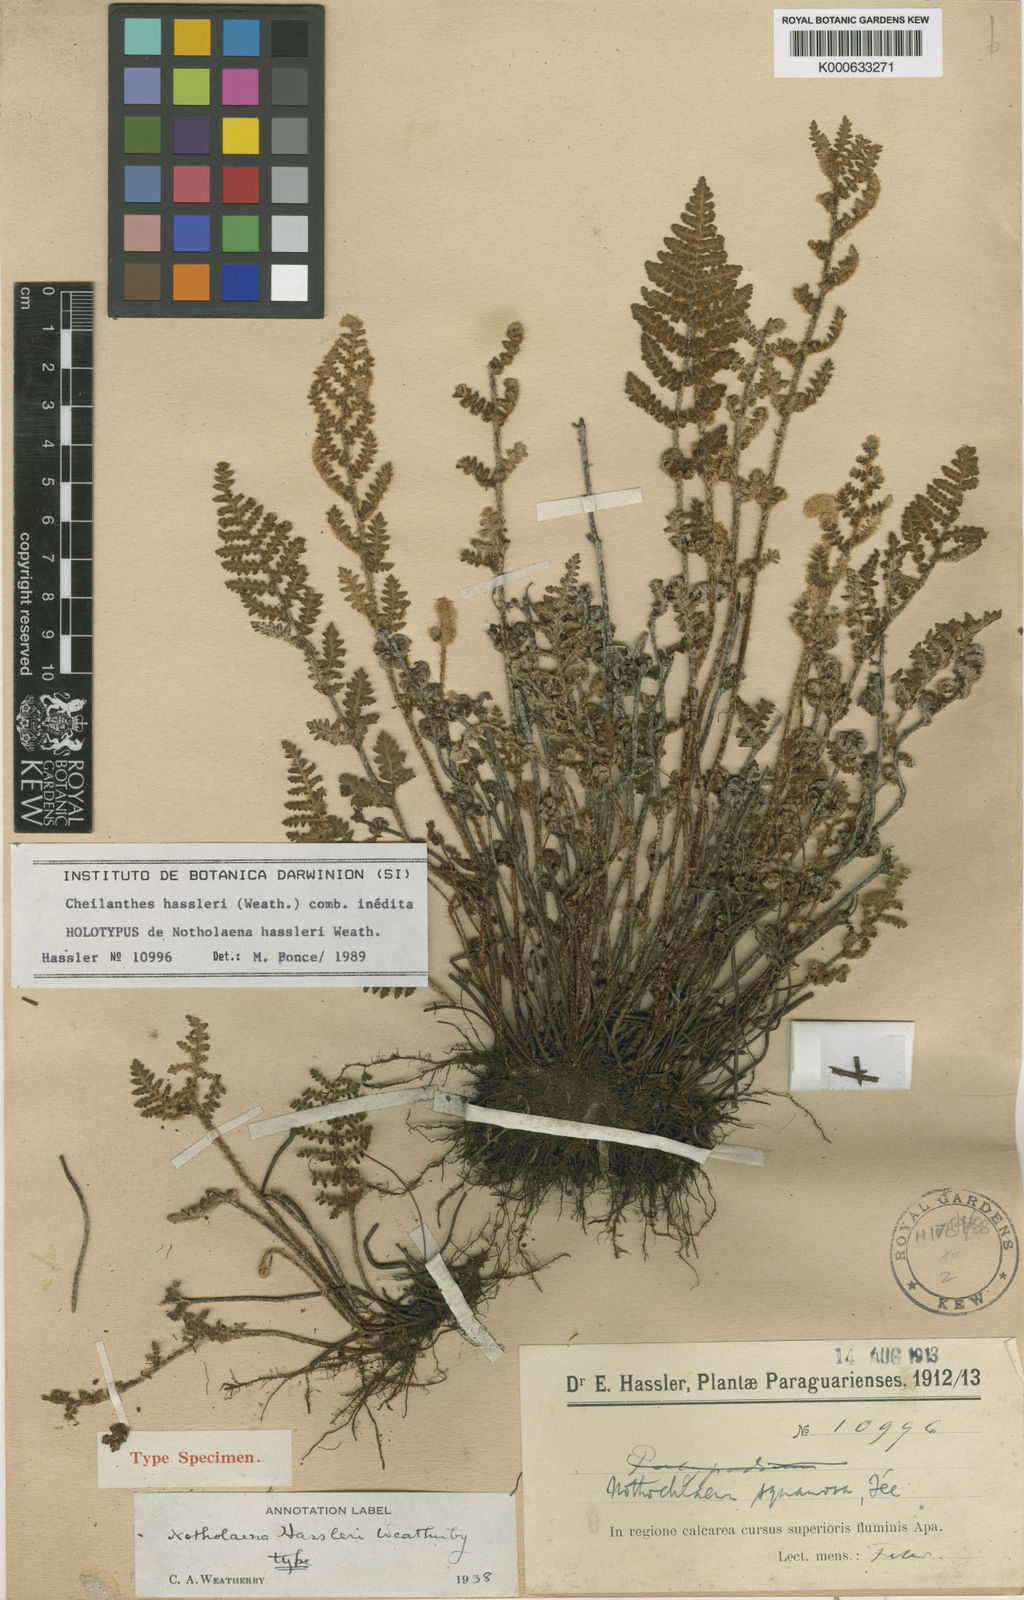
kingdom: Plantae
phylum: Tracheophyta
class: Polypodiopsida
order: Polypodiales
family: Pteridaceae
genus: Cheilanthes
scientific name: Cheilanthes hassleri
